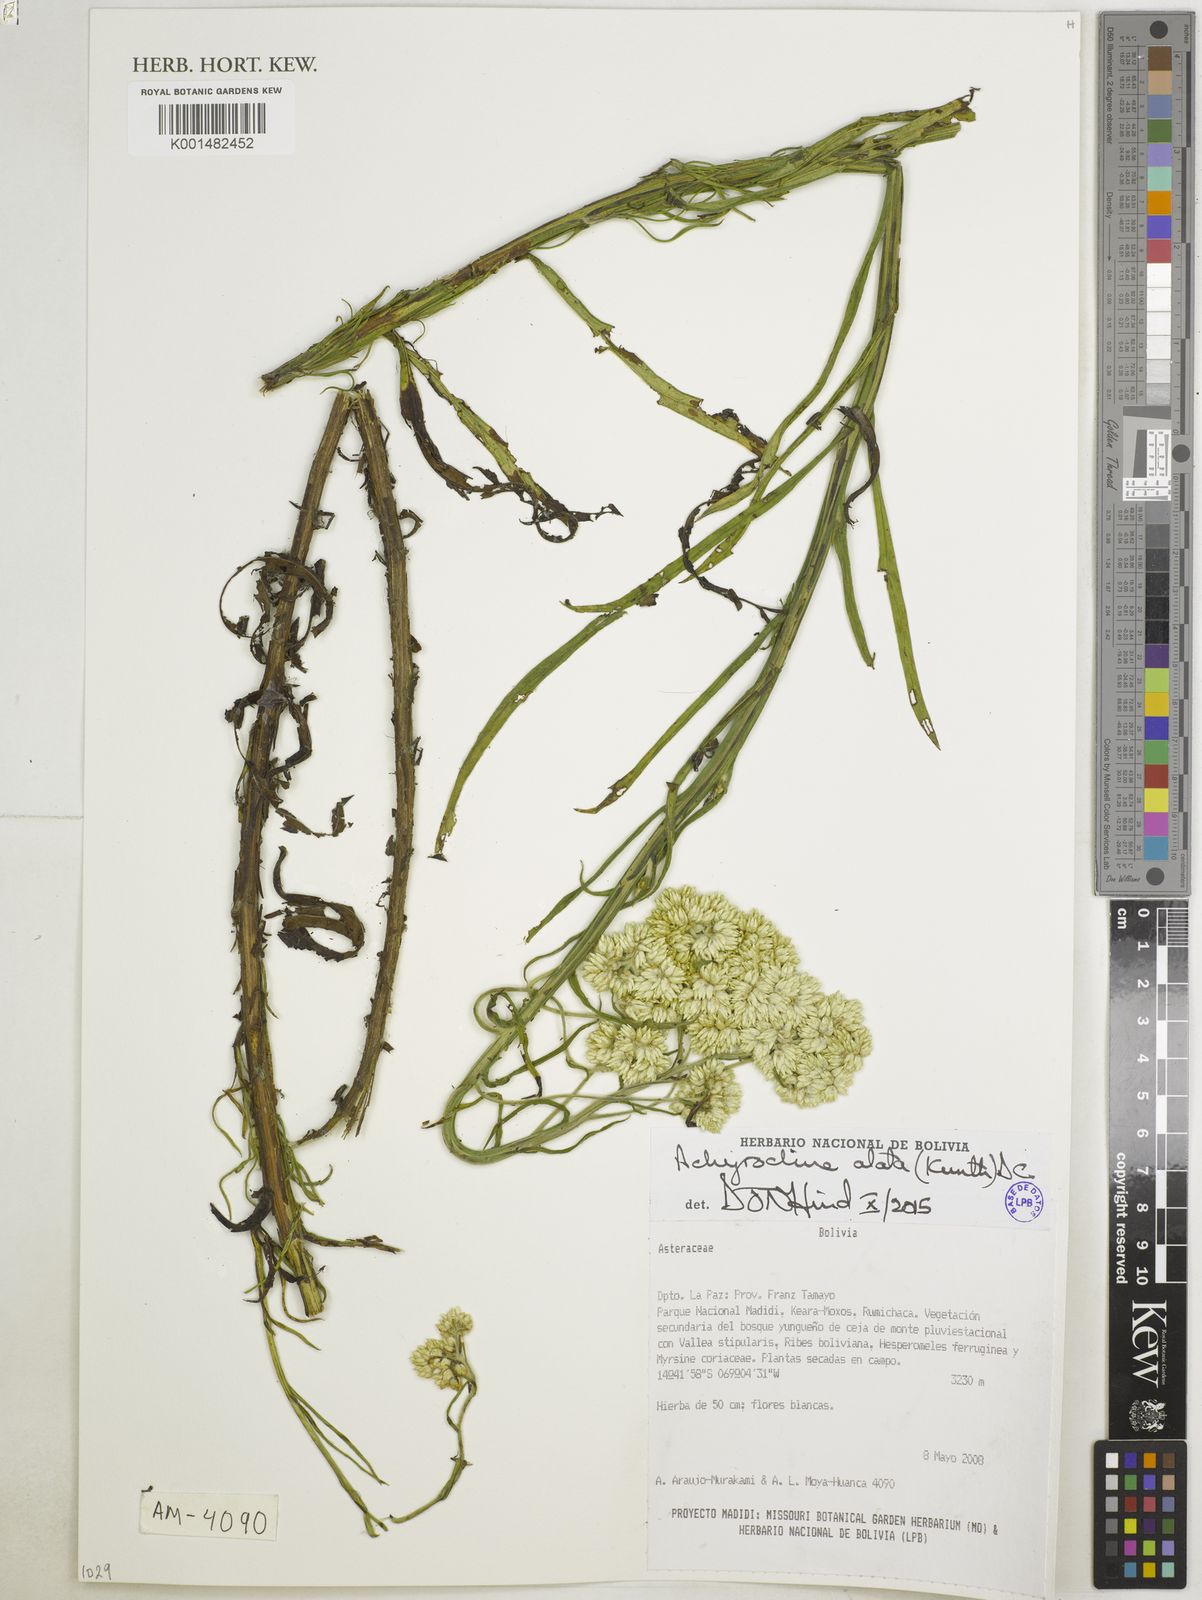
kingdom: Plantae
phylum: Tracheophyta
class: Magnoliopsida
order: Asterales
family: Asteraceae
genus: Achyrocline
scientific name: Achyrocline alata
